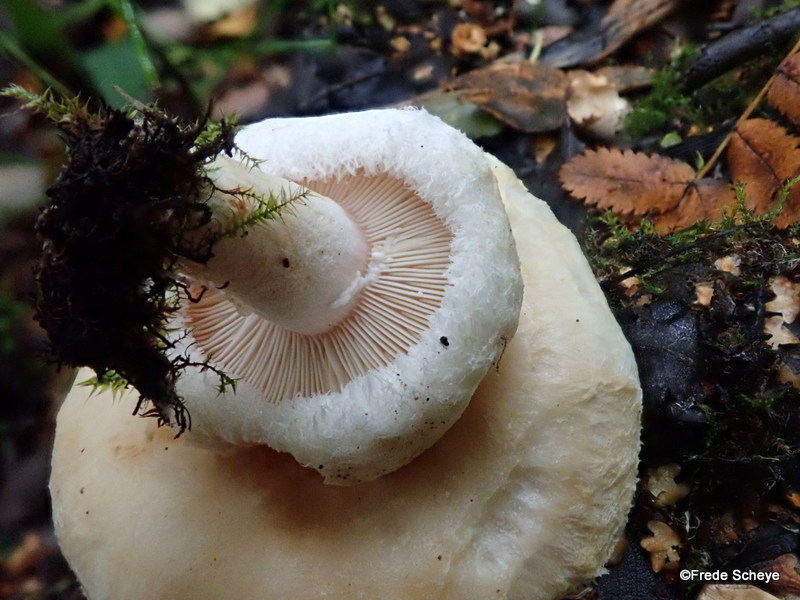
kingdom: Fungi
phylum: Basidiomycota
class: Agaricomycetes
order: Russulales
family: Russulaceae
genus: Lactarius
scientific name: Lactarius scoticus
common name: tørve-mælkehat
